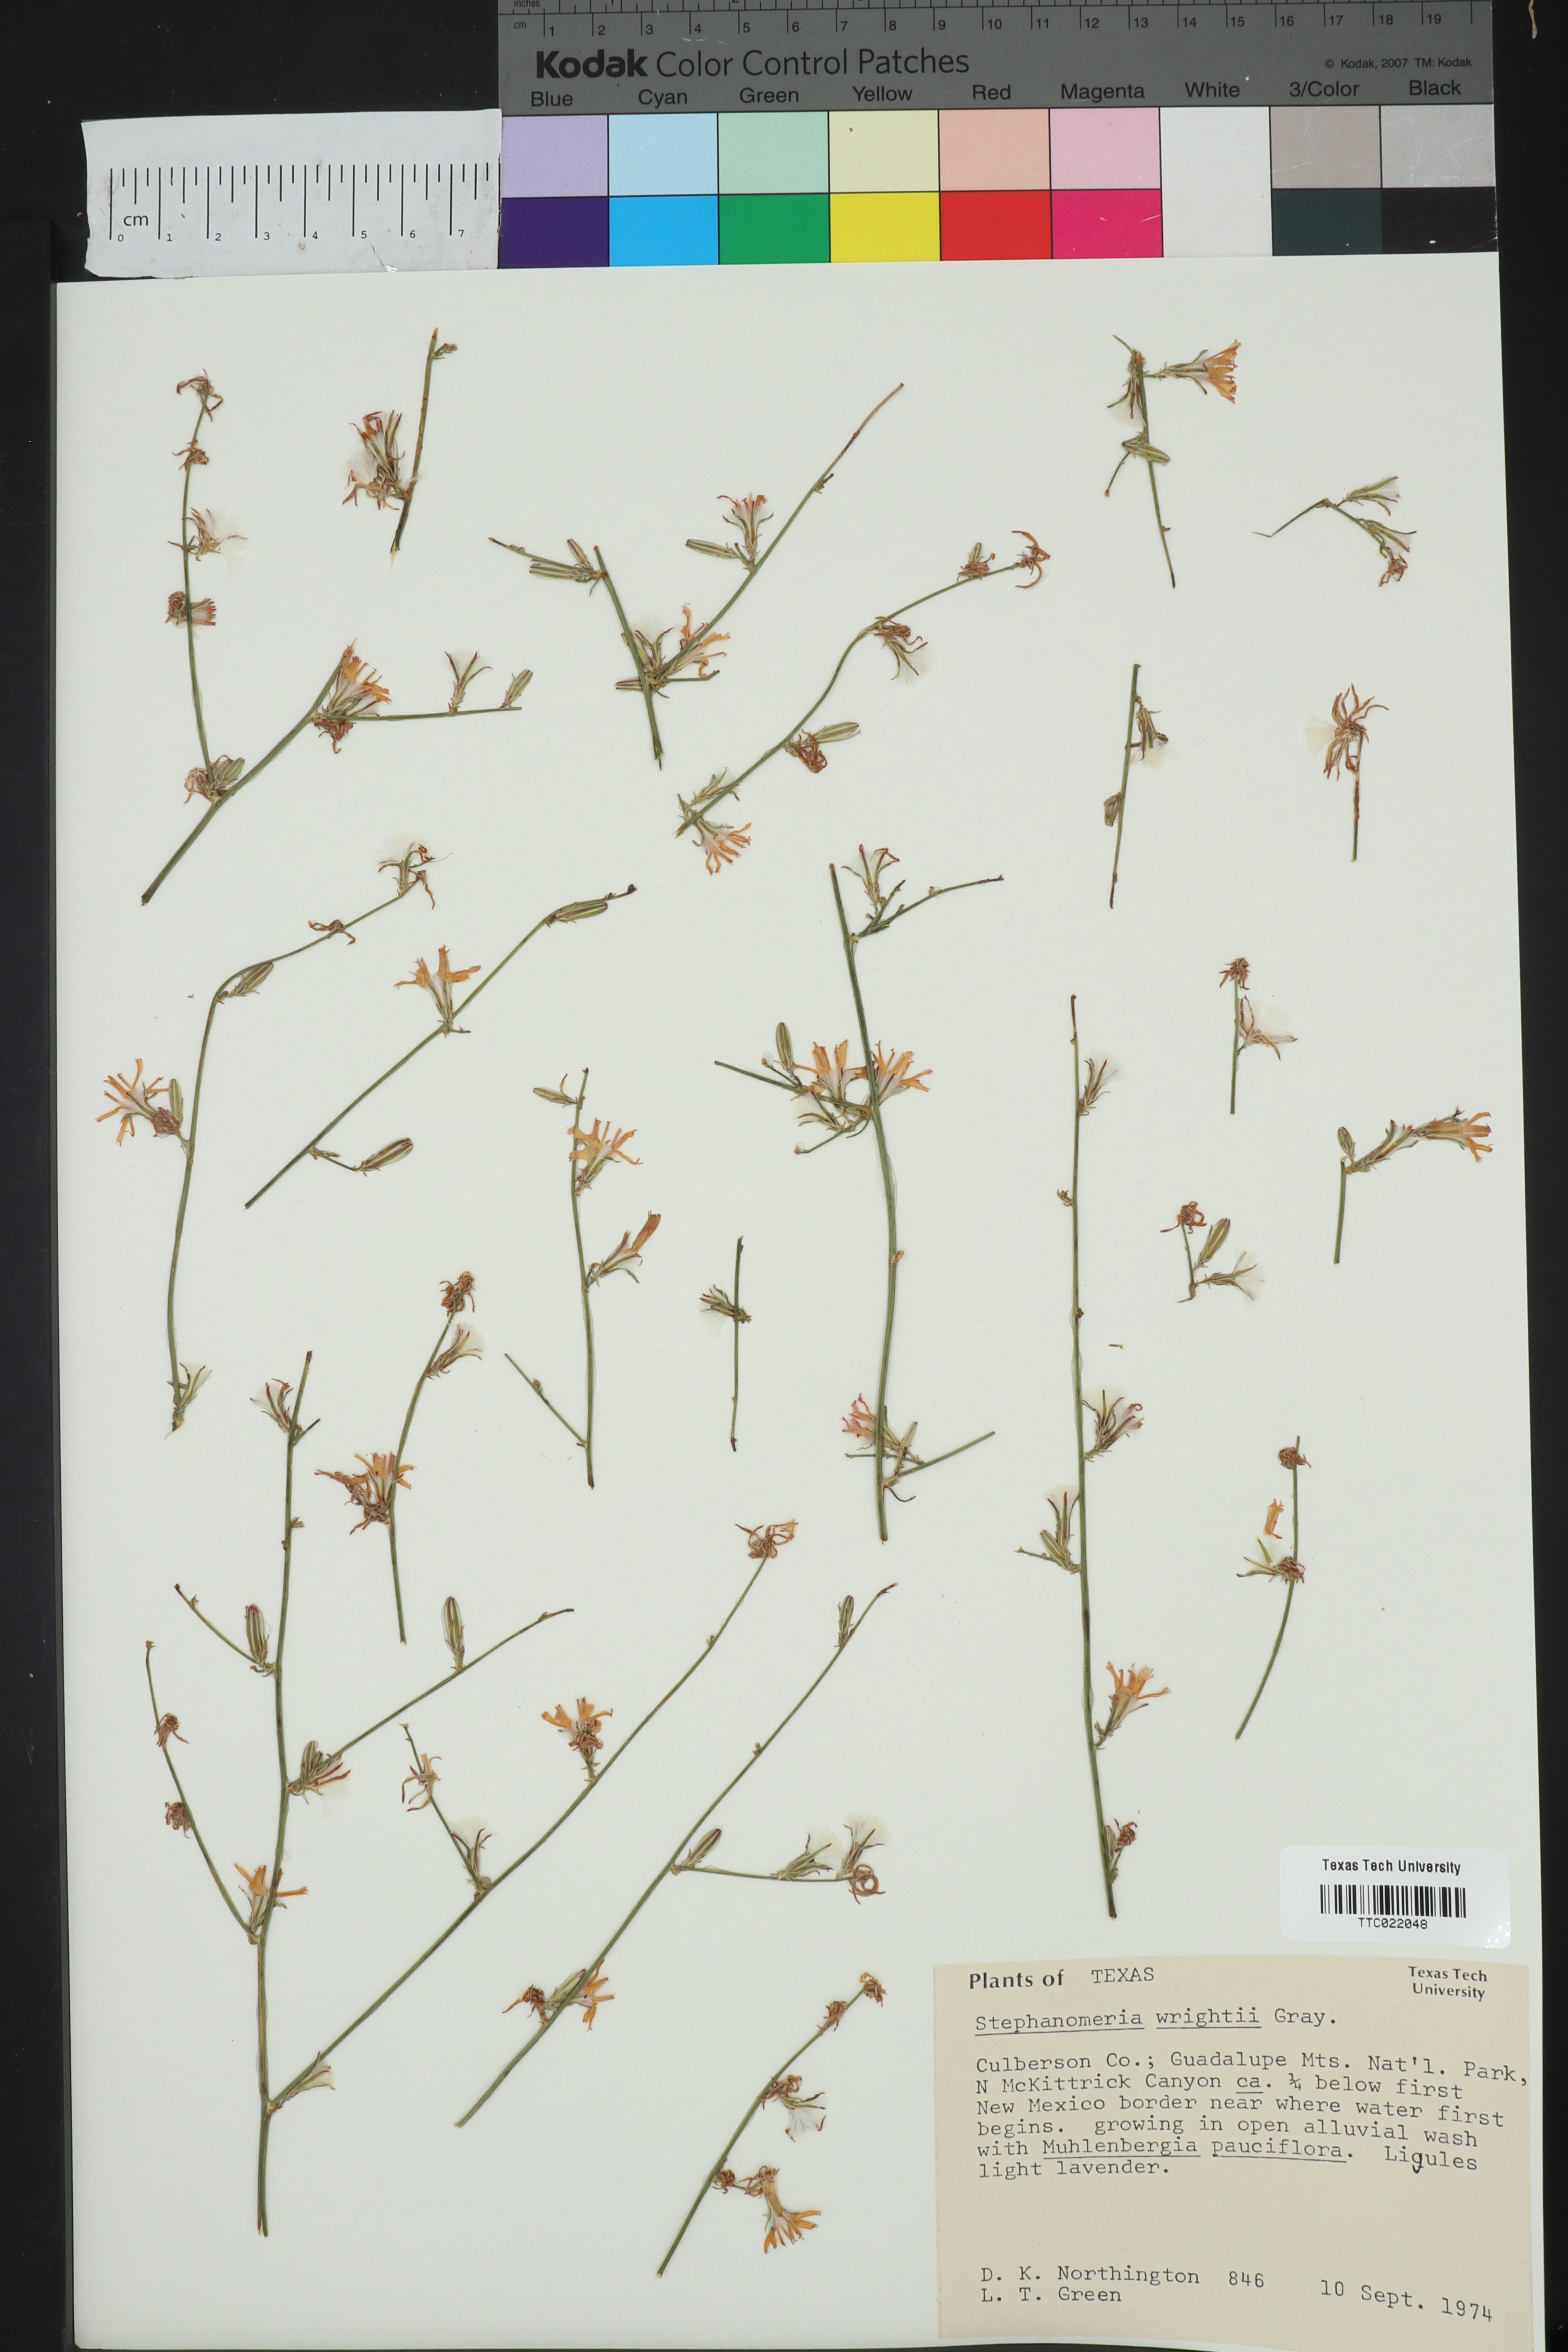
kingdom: Plantae
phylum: Tracheophyta
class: Magnoliopsida
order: Asterales
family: Asteraceae
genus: Stephanomeria
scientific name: Stephanomeria tenuifolia
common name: Slender wirelettuce
